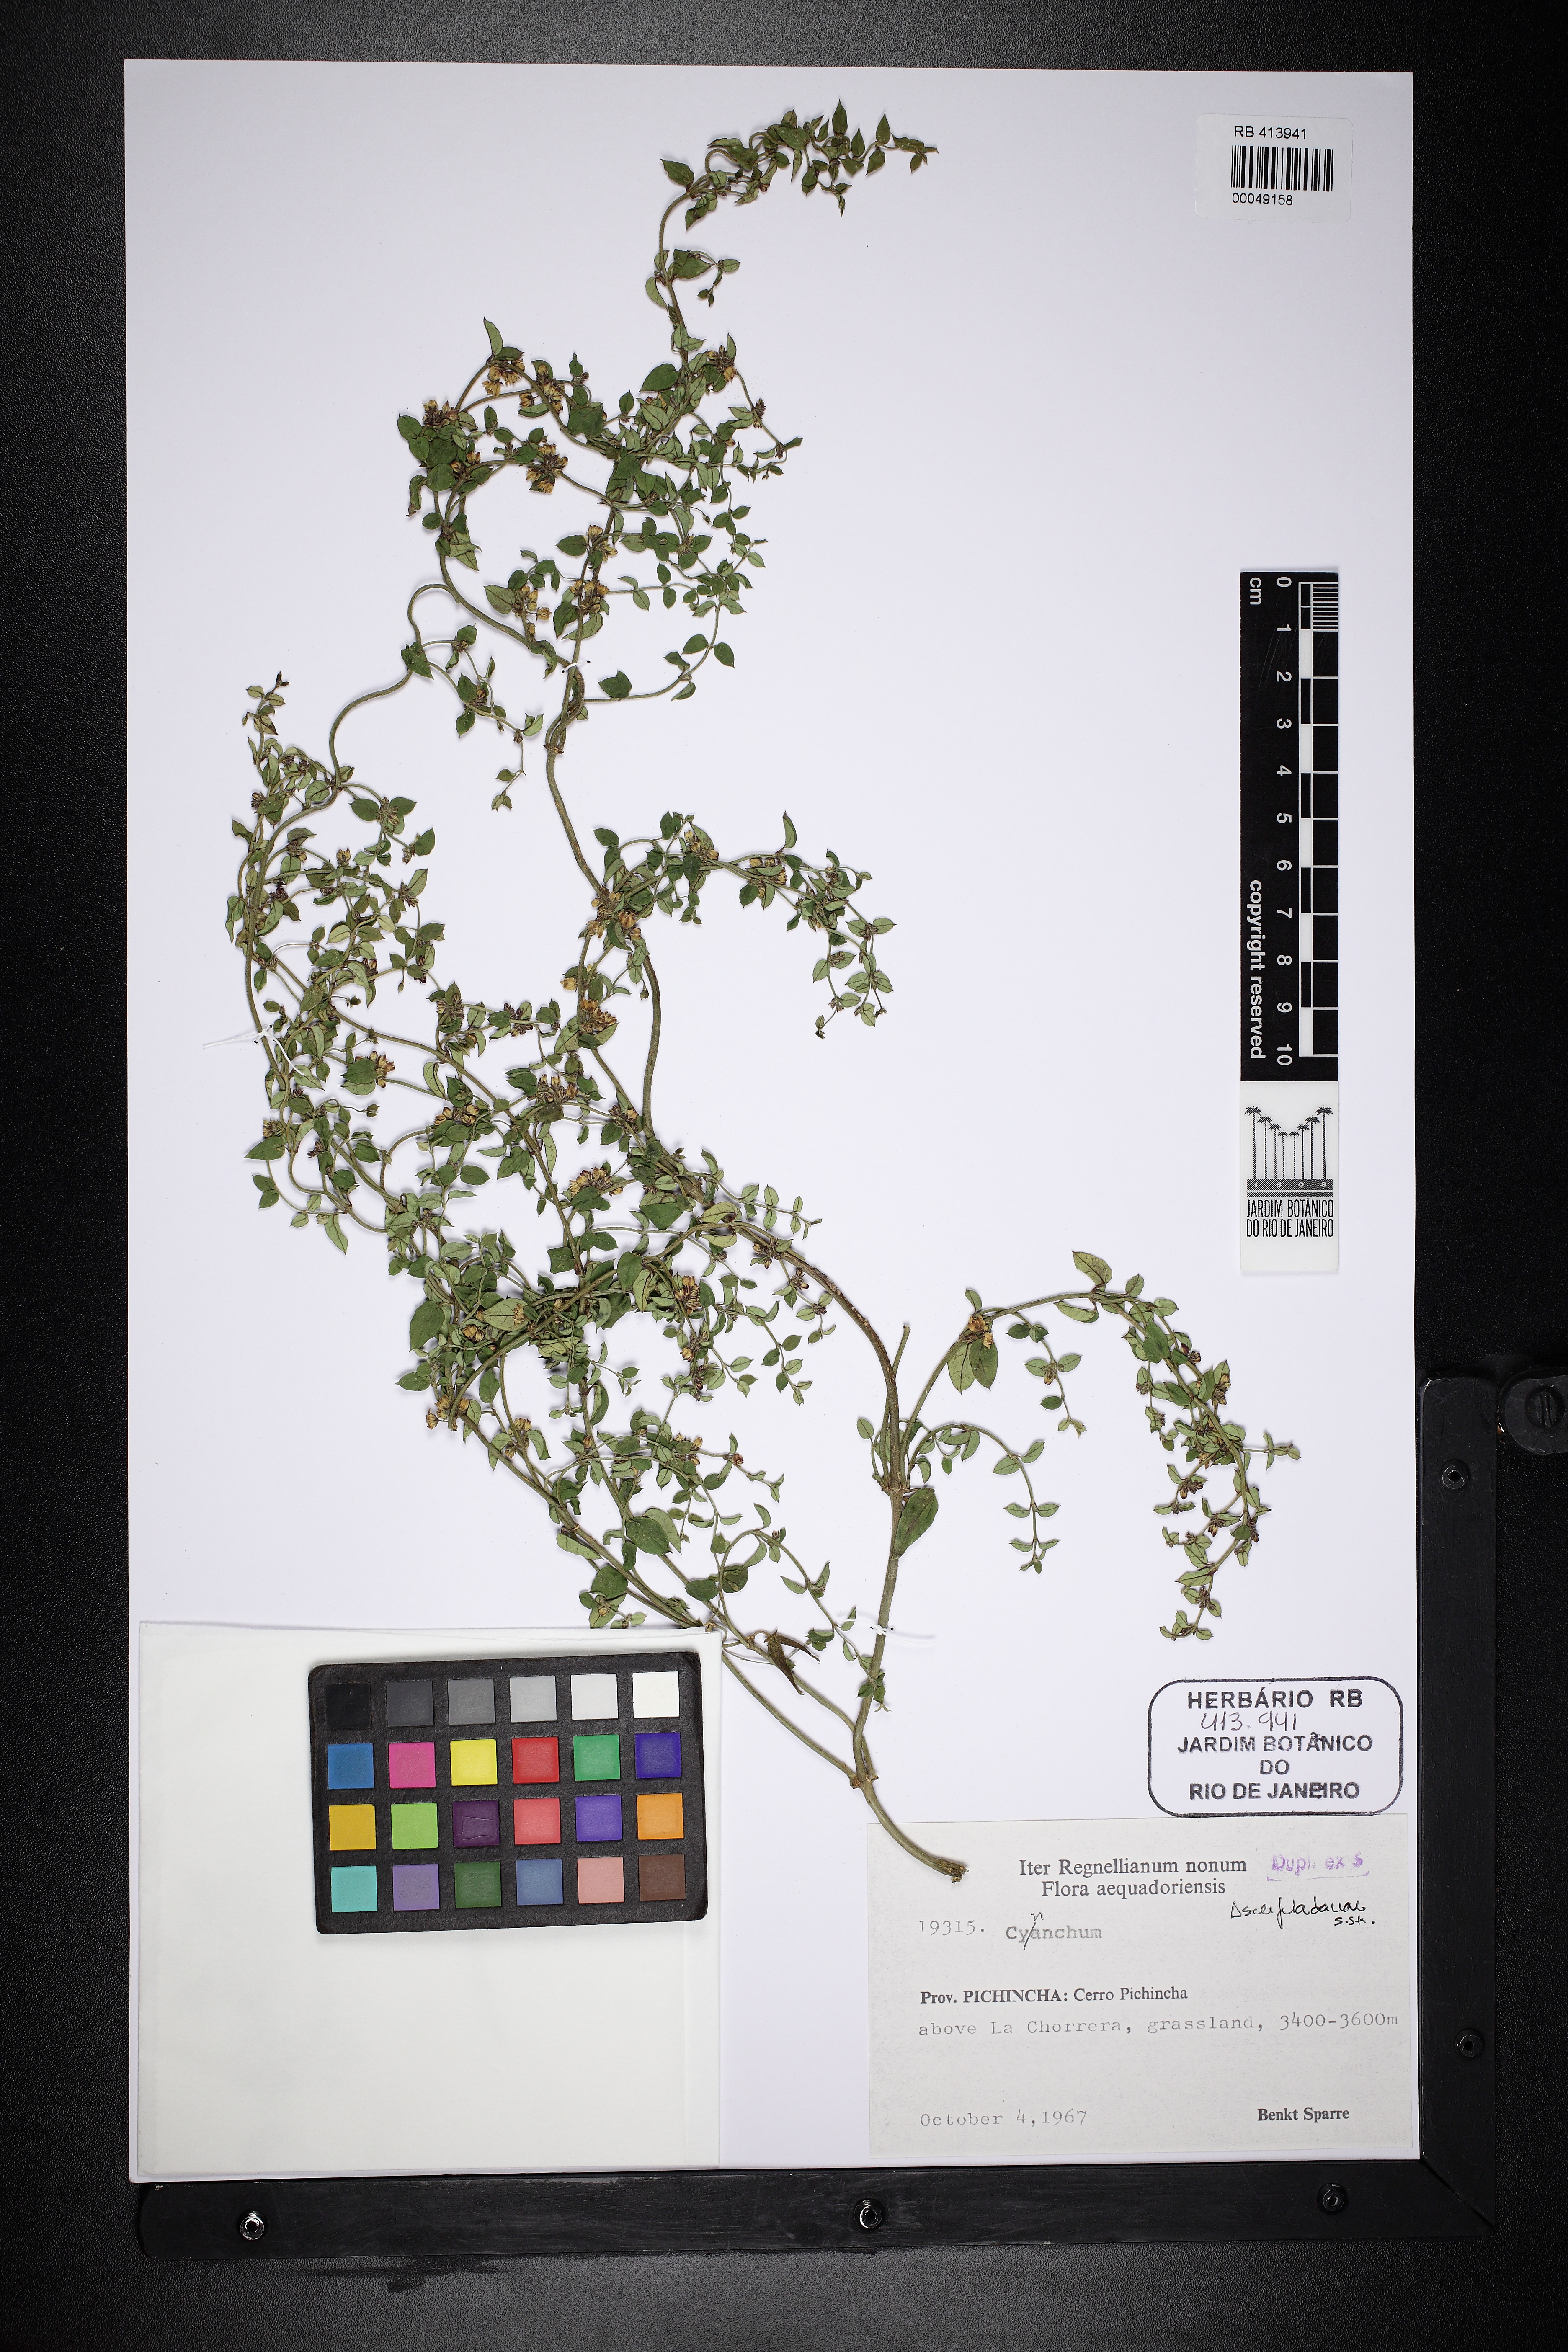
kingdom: Plantae
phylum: Tracheophyta
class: Magnoliopsida
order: Gentianales
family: Apocynaceae
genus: Cynanchum
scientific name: Cynanchum
